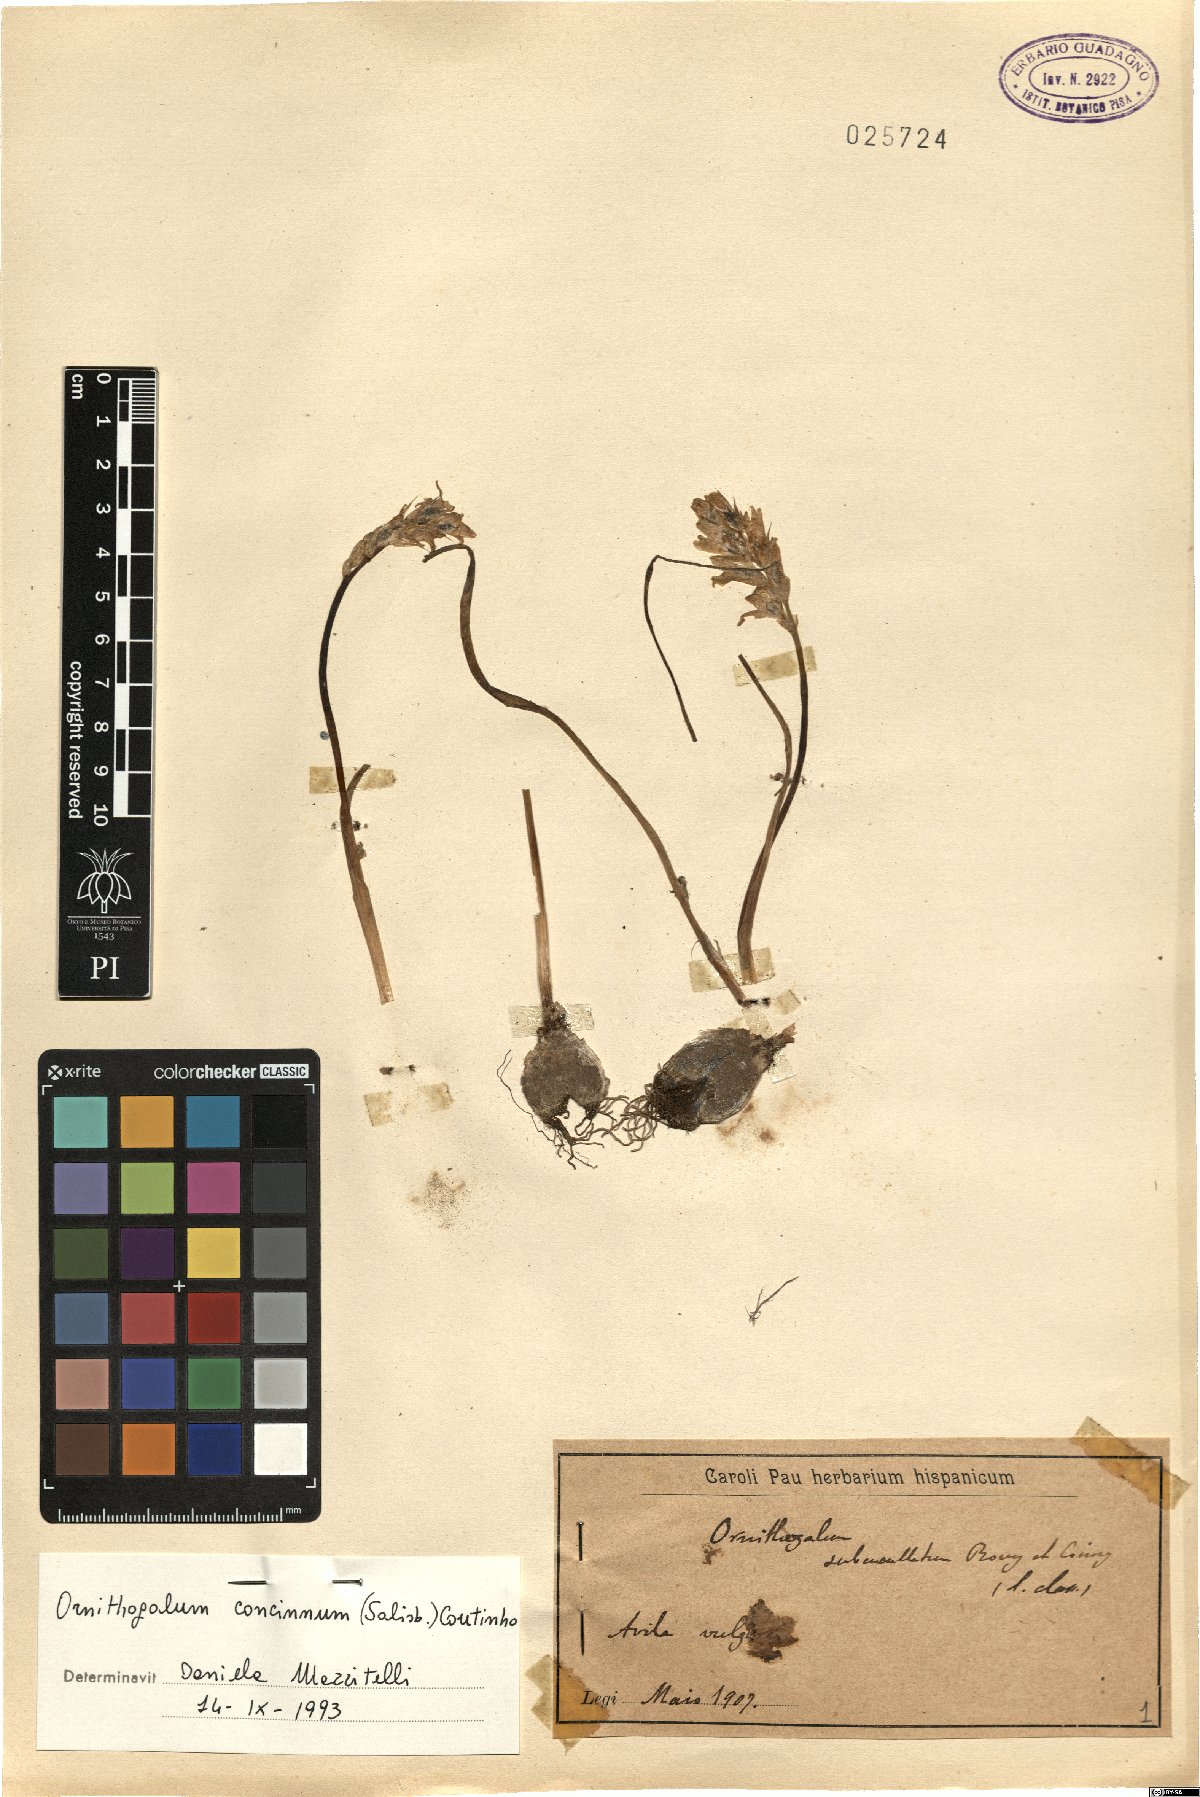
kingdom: Plantae
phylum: Tracheophyta
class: Liliopsida
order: Asparagales
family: Asparagaceae
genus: Ornithogalum
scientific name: Ornithogalum concinnum
